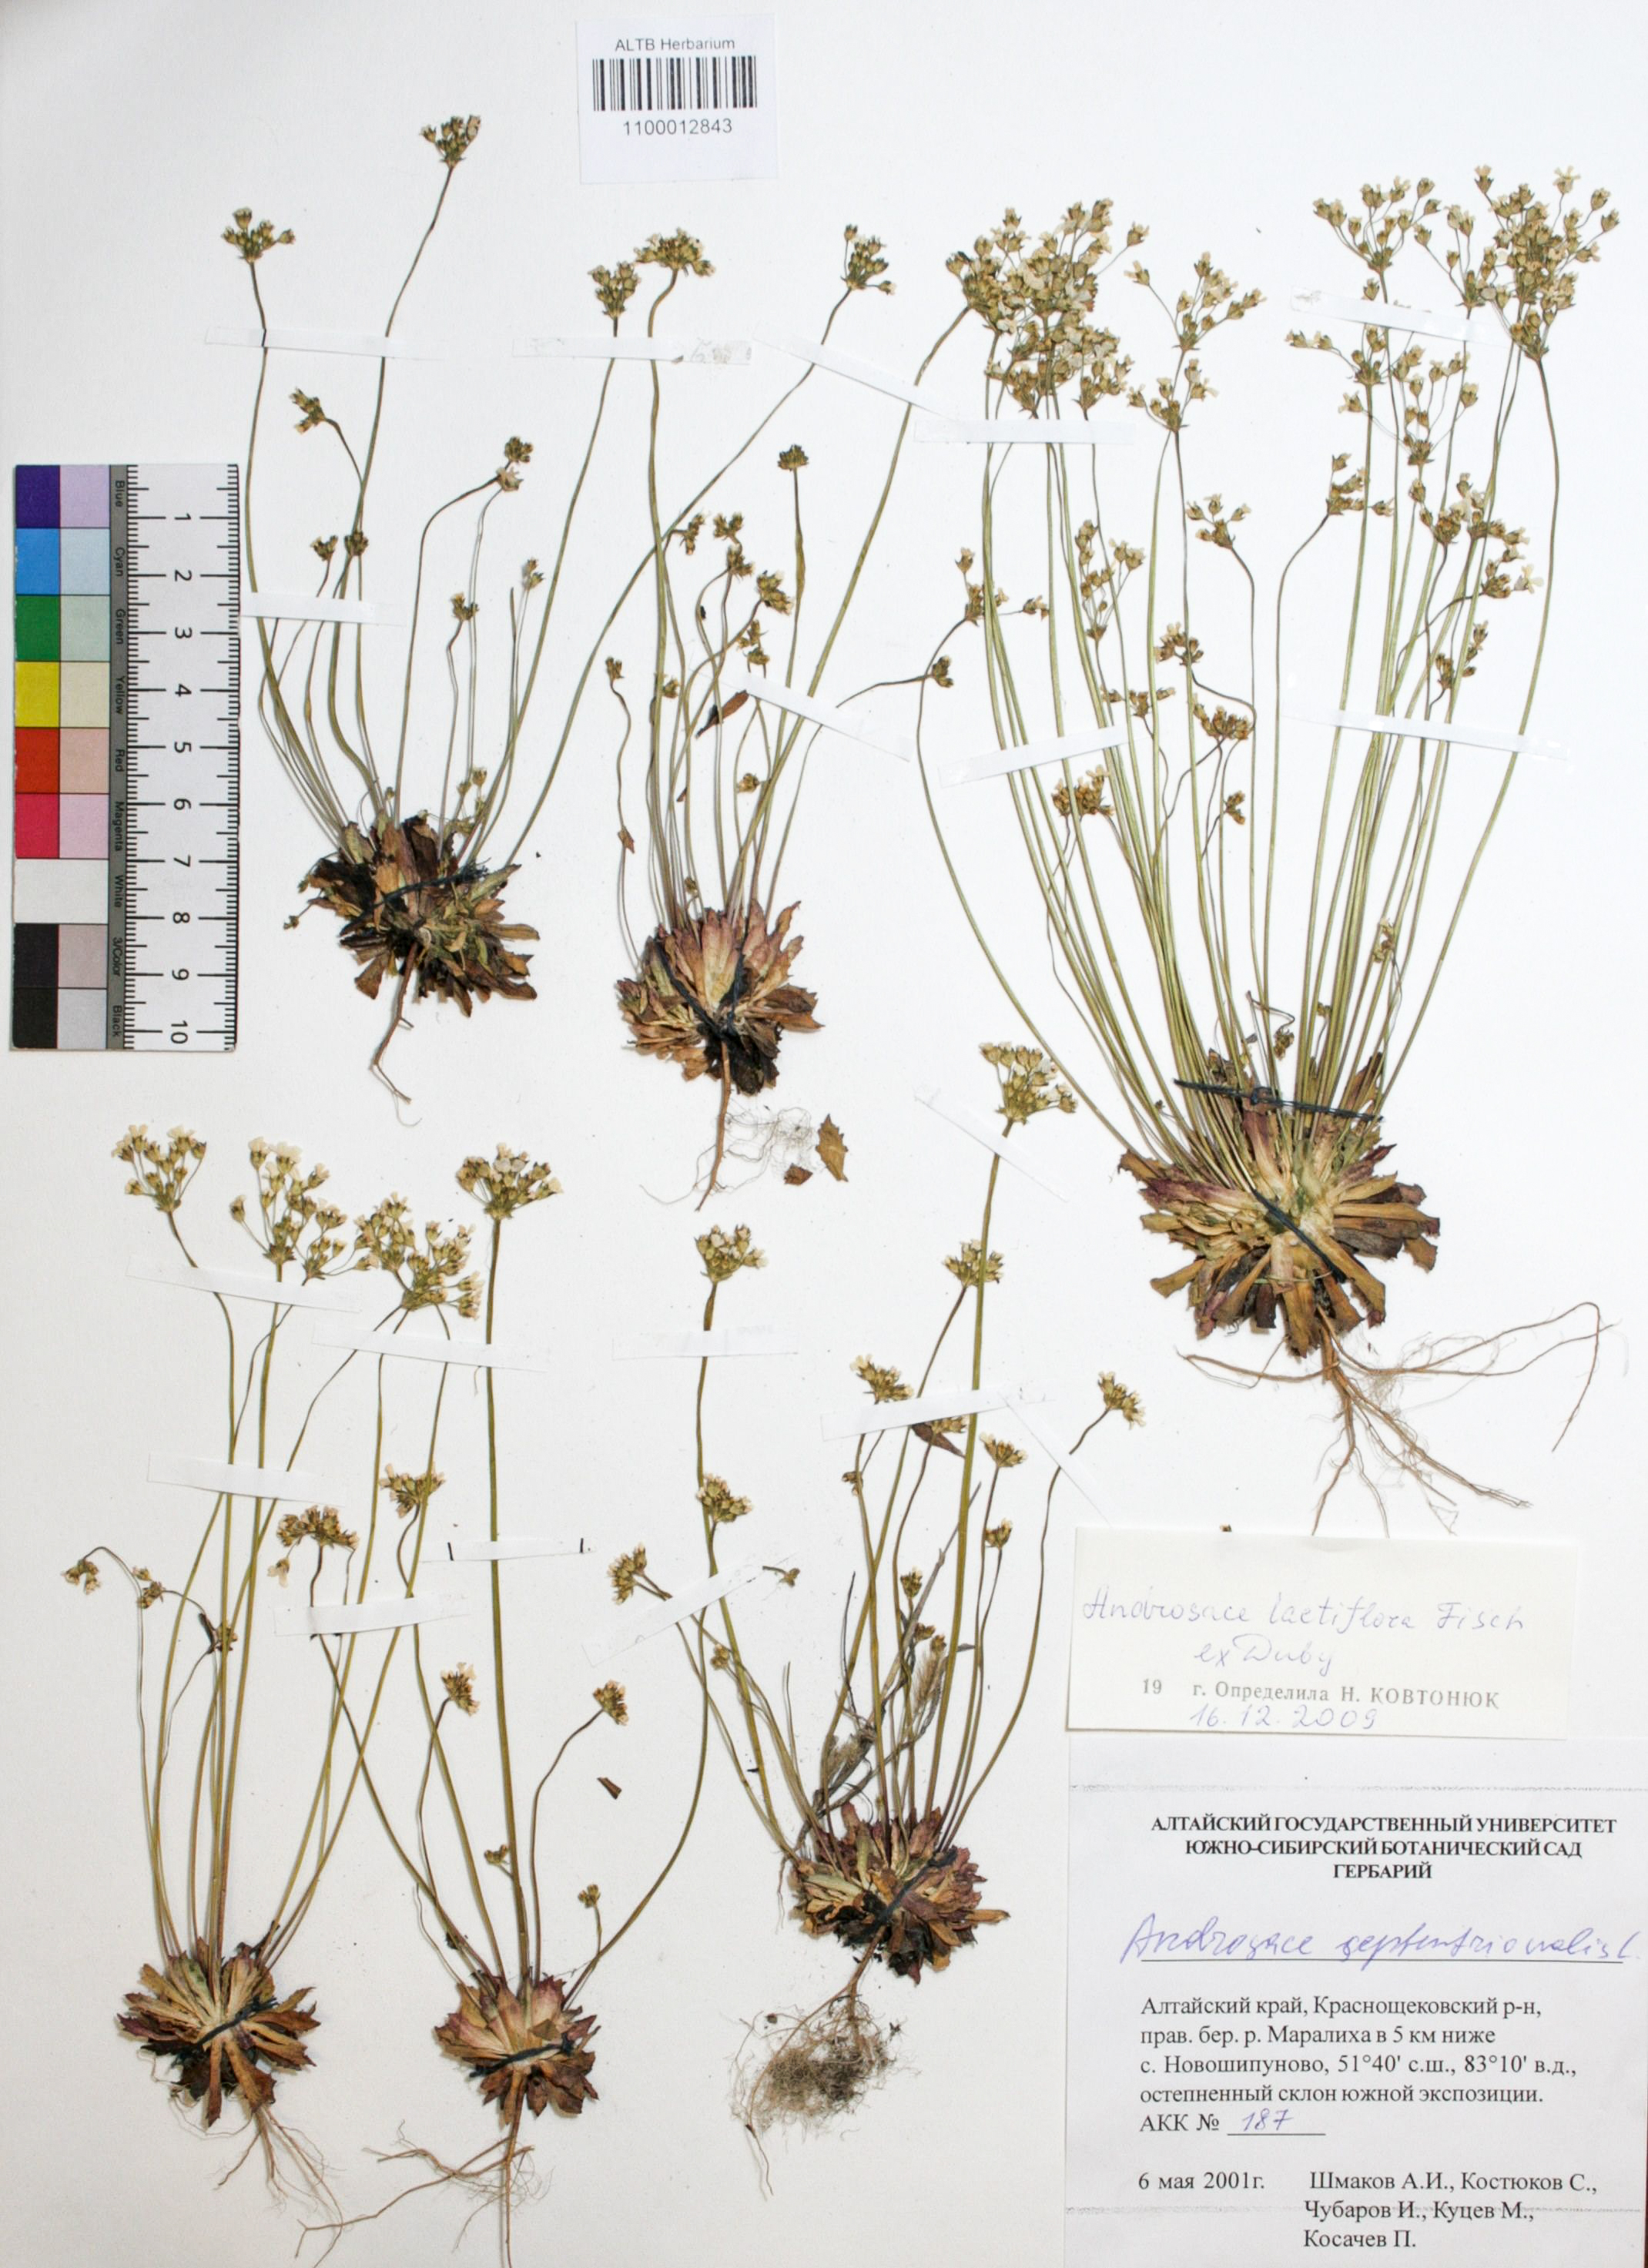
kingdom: Plantae
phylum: Tracheophyta
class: Magnoliopsida
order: Ericales
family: Primulaceae
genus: Androsace
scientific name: Androsace lactiflora
